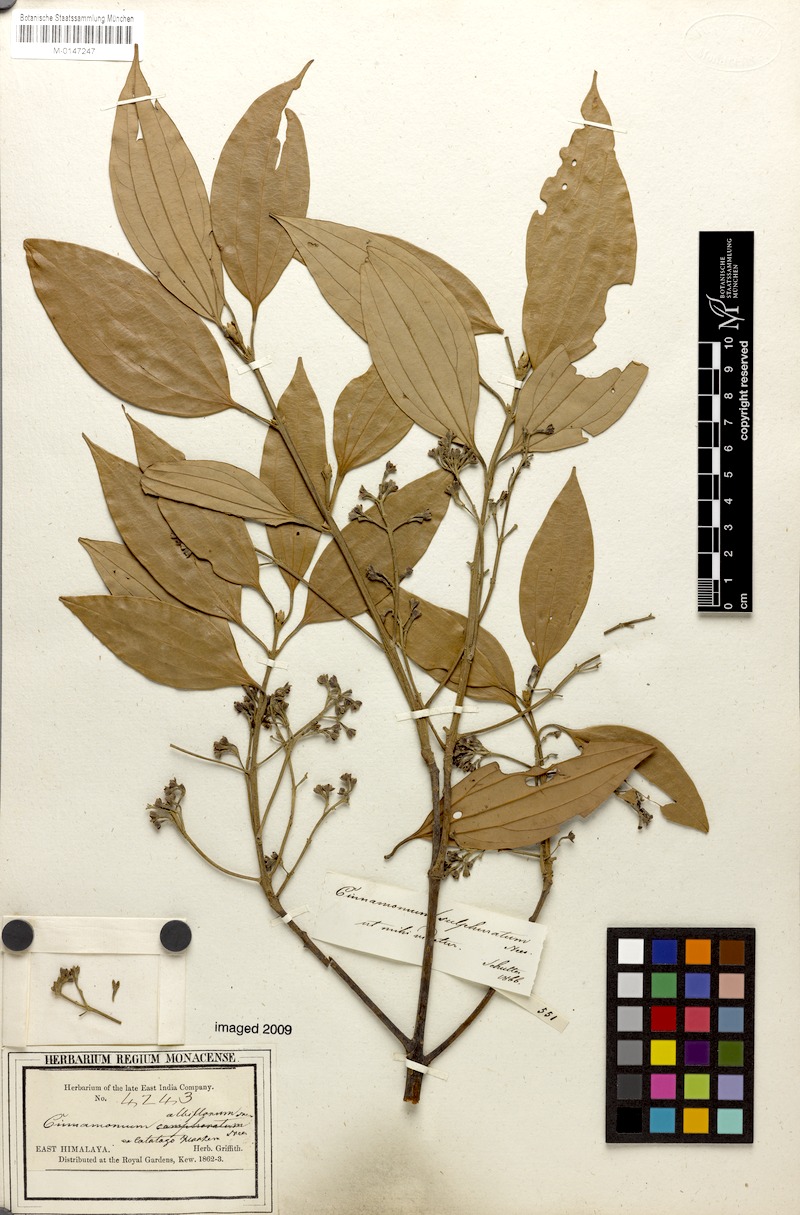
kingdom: Plantae
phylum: Tracheophyta
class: Magnoliopsida
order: Laurales
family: Lauraceae
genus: Cinnamomum
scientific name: Cinnamomum sulphuratum
